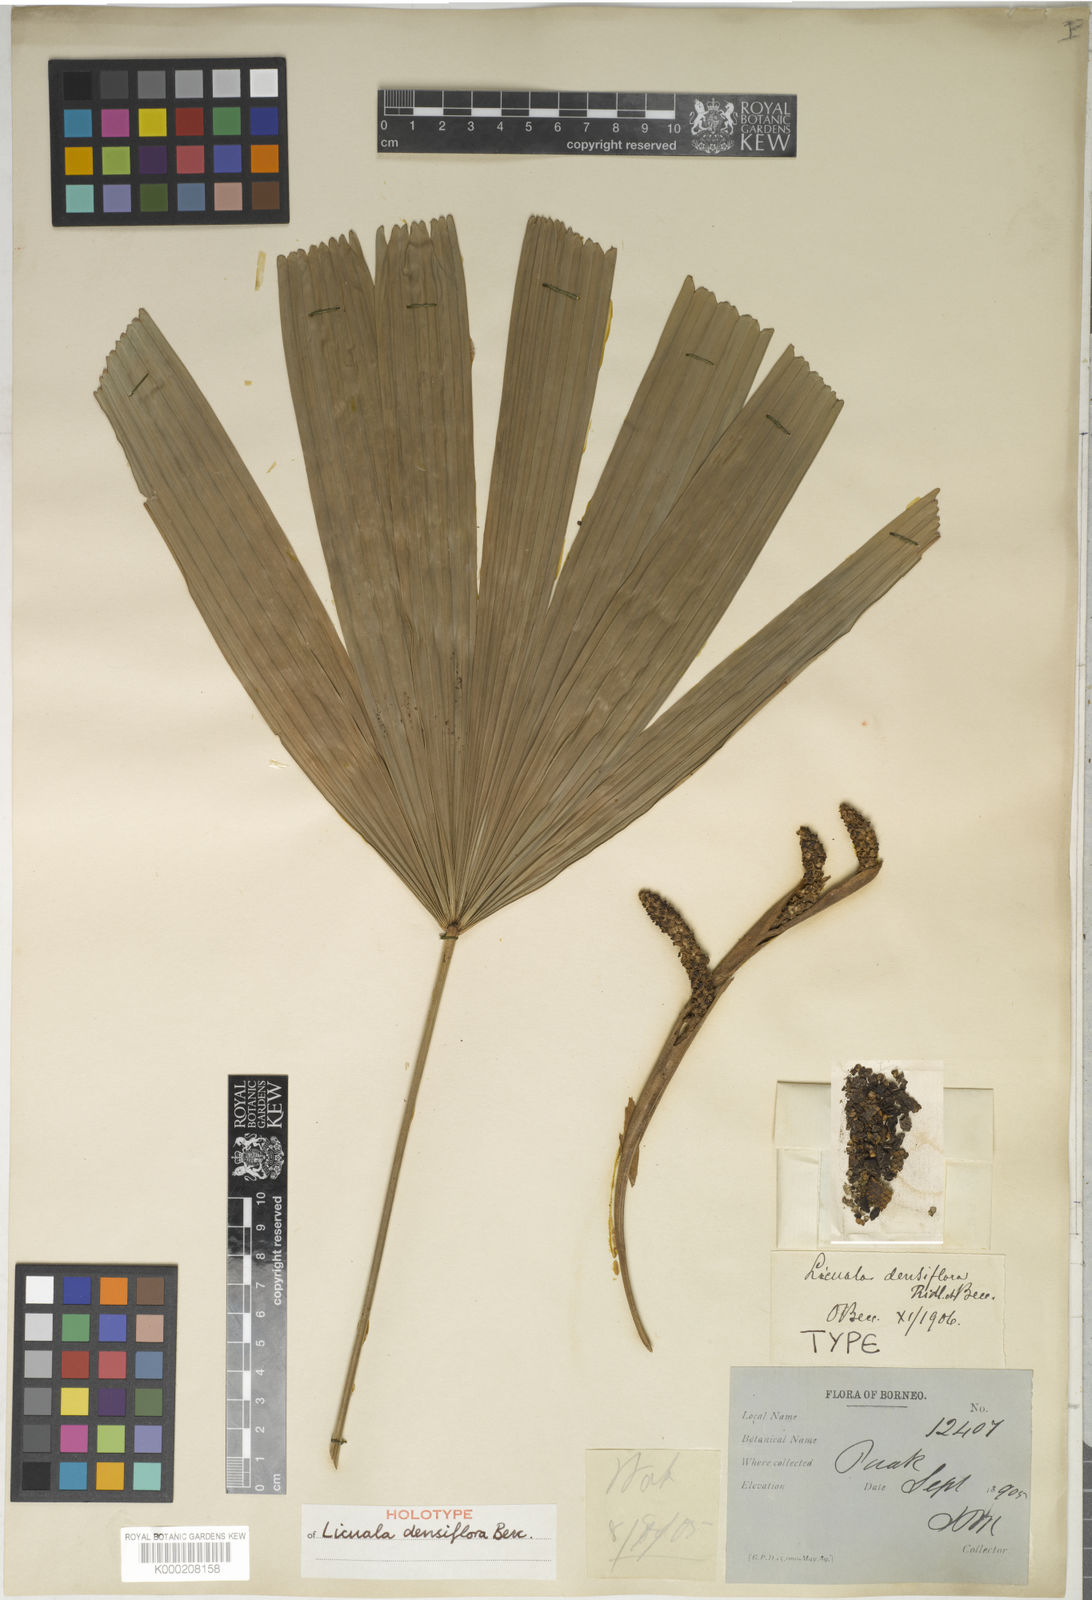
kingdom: Plantae
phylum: Tracheophyta
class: Liliopsida
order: Arecales
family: Arecaceae
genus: Licuala
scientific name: Licuala densiflora
